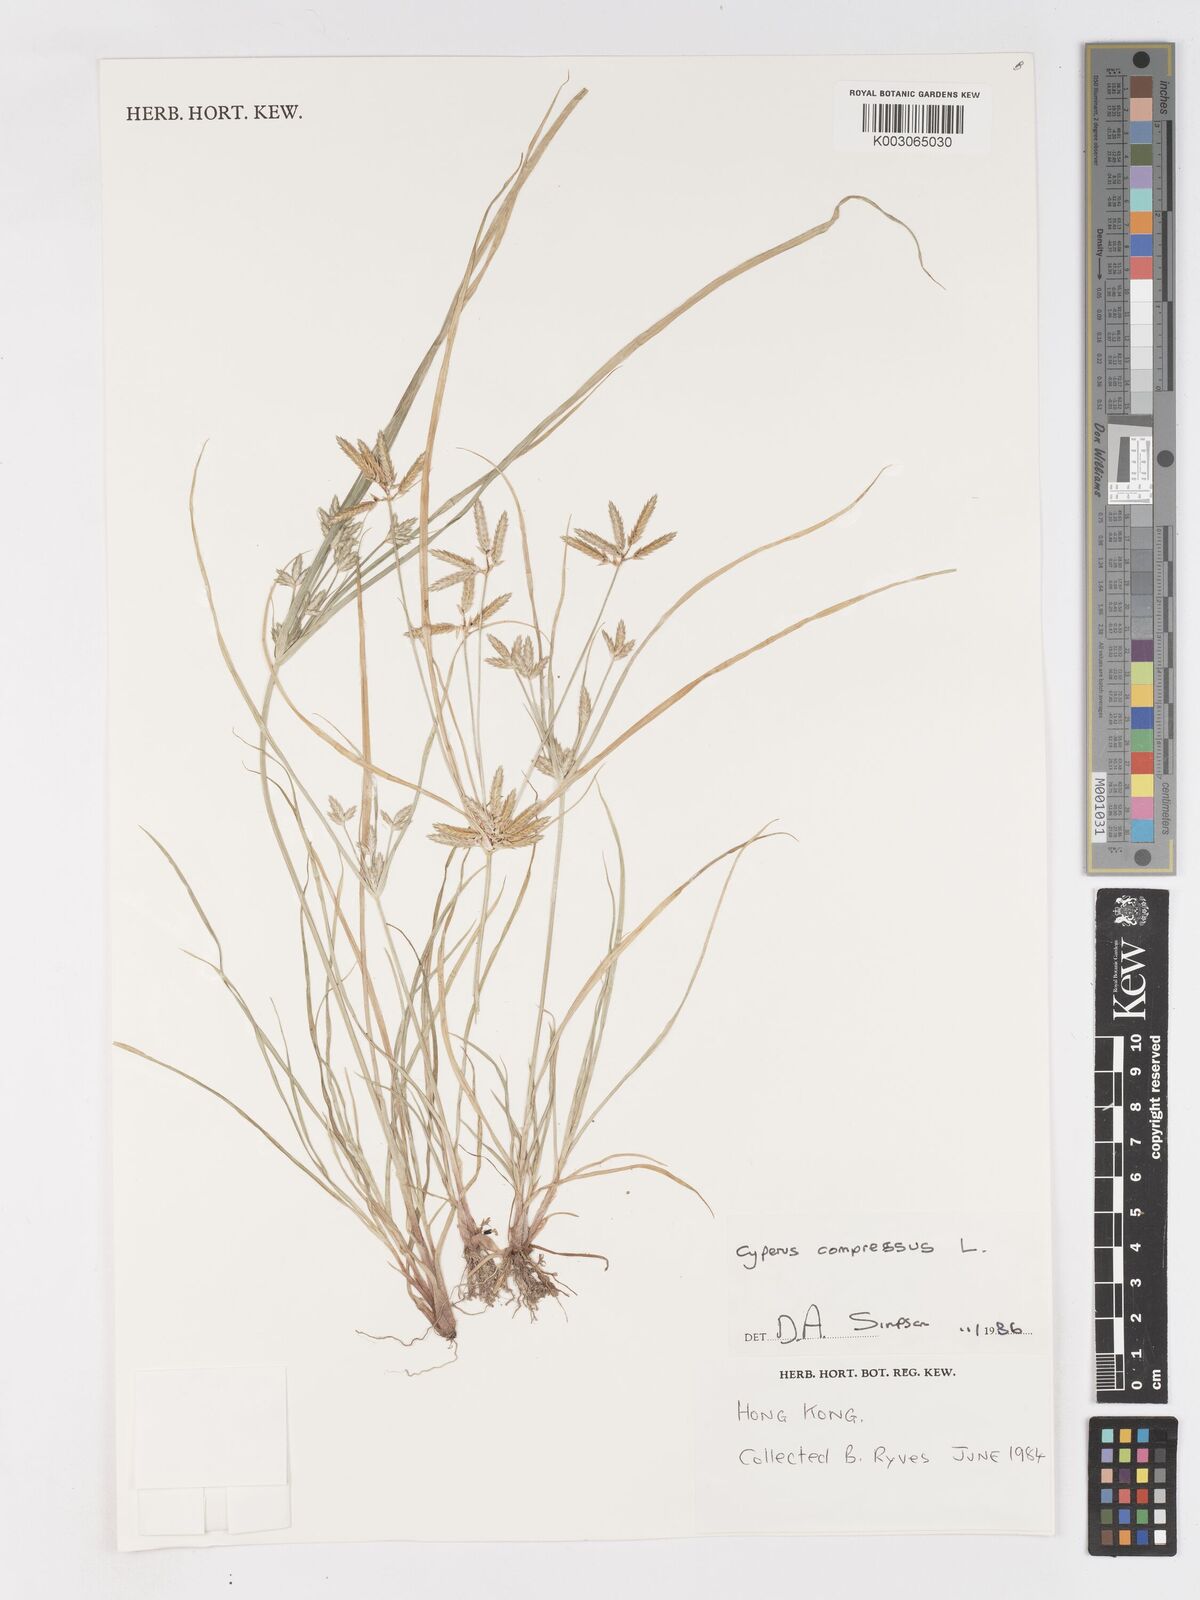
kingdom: Plantae
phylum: Tracheophyta
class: Liliopsida
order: Poales
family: Cyperaceae
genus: Cyperus
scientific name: Cyperus compressus
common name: Poorland flatsedge
